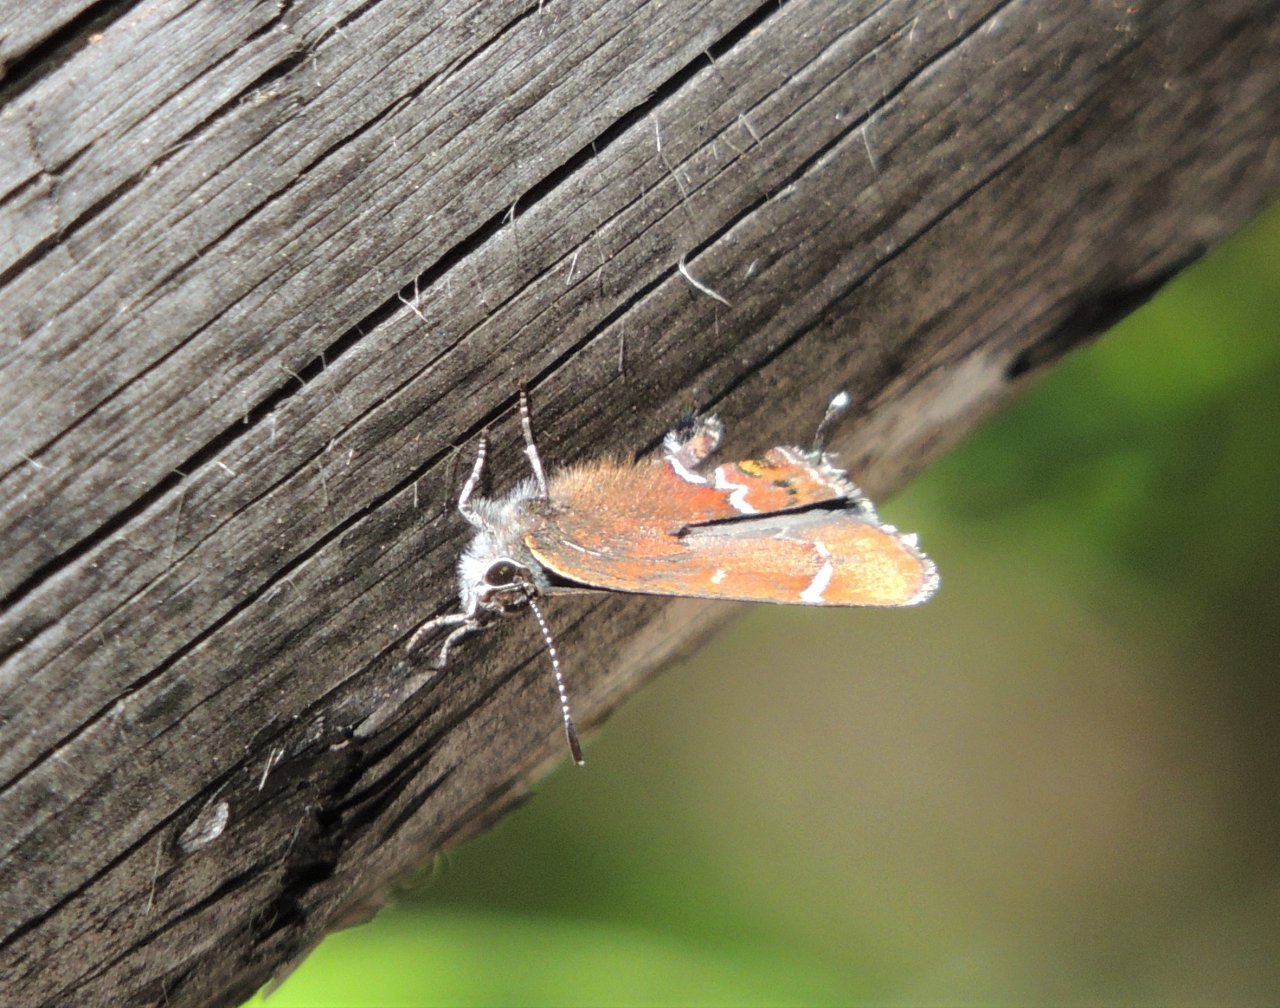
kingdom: Animalia
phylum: Arthropoda
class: Insecta
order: Lepidoptera
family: Lycaenidae
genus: Mitoura
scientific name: Mitoura spinetorum
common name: Thicket Hairstreak
